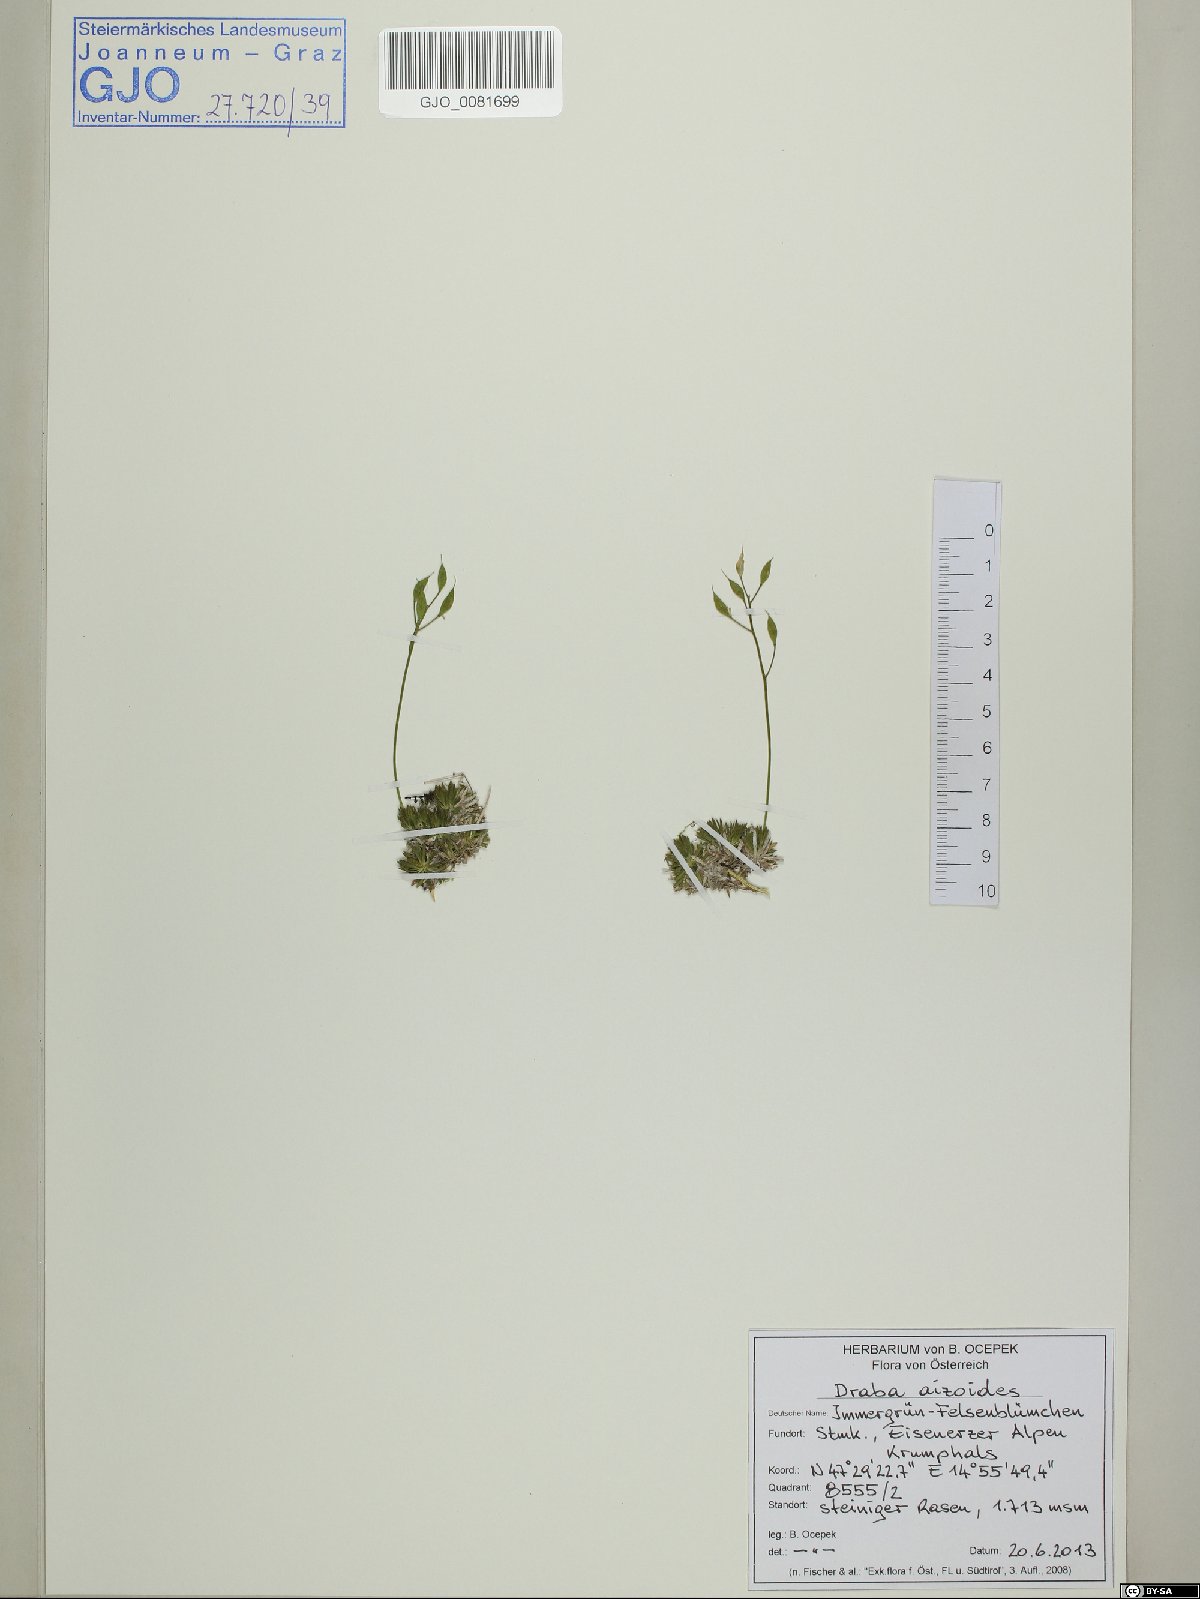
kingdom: Plantae
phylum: Tracheophyta
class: Magnoliopsida
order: Brassicales
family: Brassicaceae
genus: Draba
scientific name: Draba aizoides
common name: Yellow whitlowgrass
